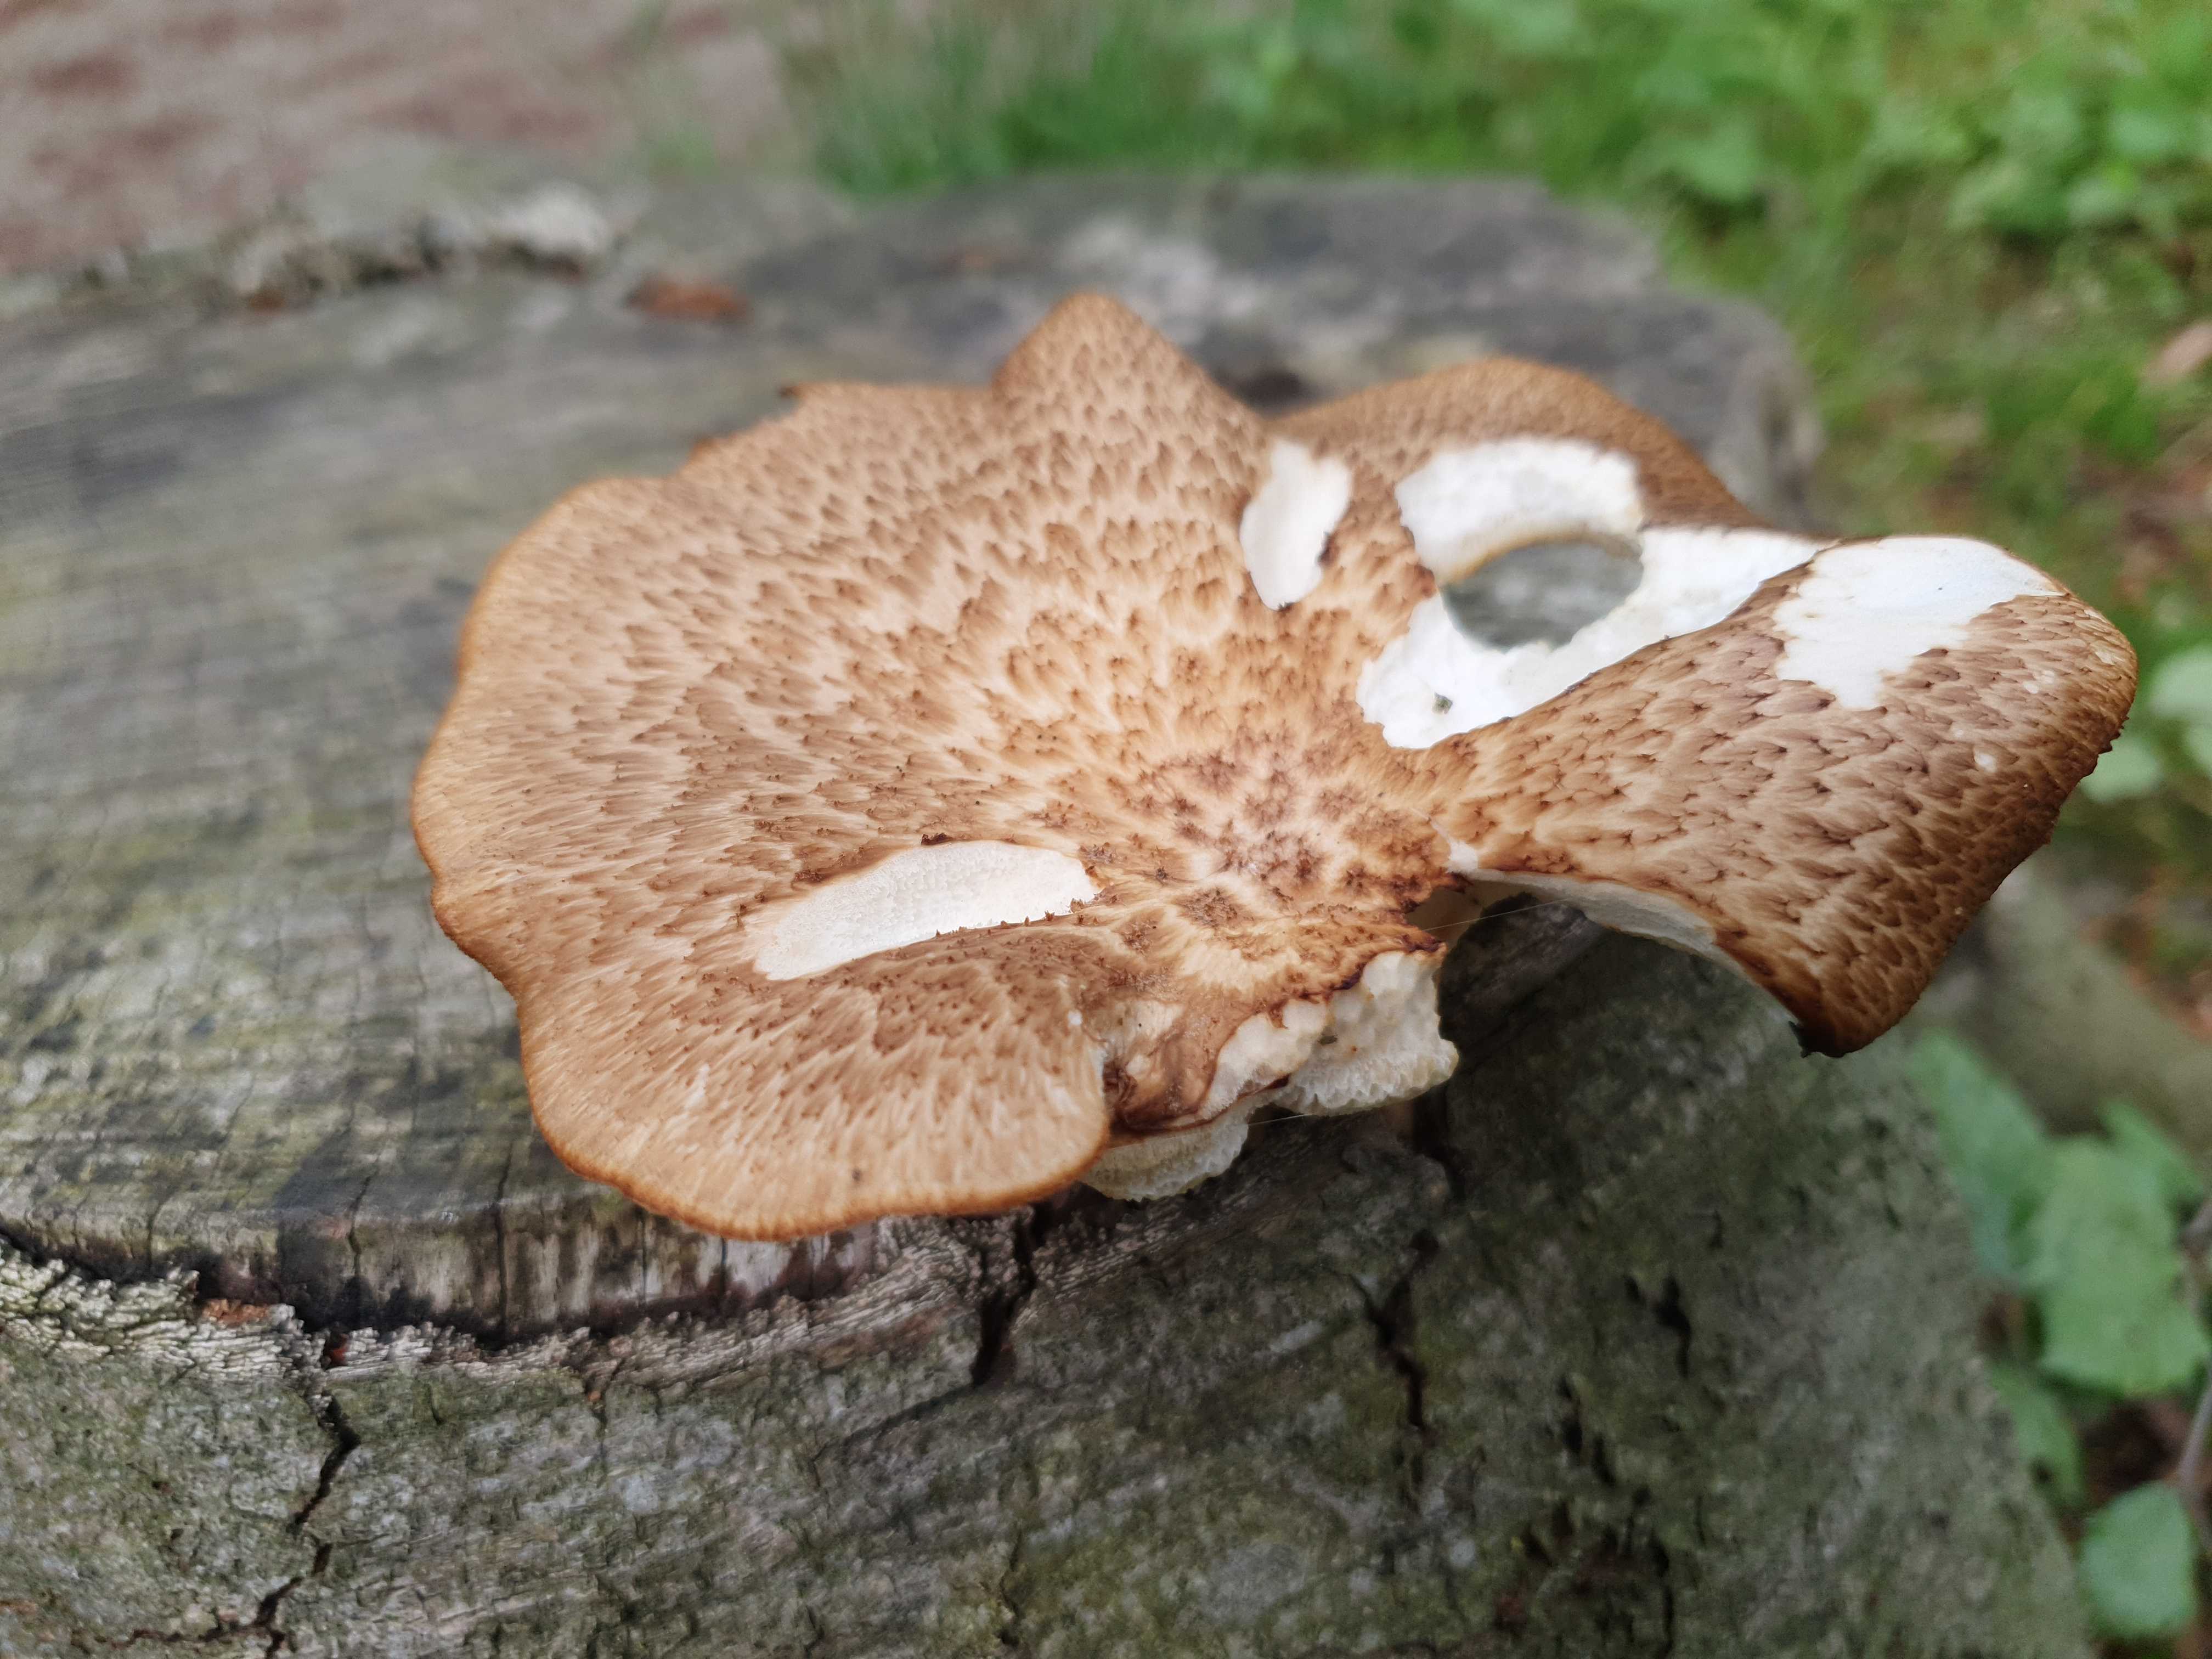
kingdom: Fungi
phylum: Basidiomycota
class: Agaricomycetes
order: Polyporales
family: Polyporaceae
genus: Cerioporus
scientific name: Cerioporus squamosus
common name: skællet stilkporesvamp
